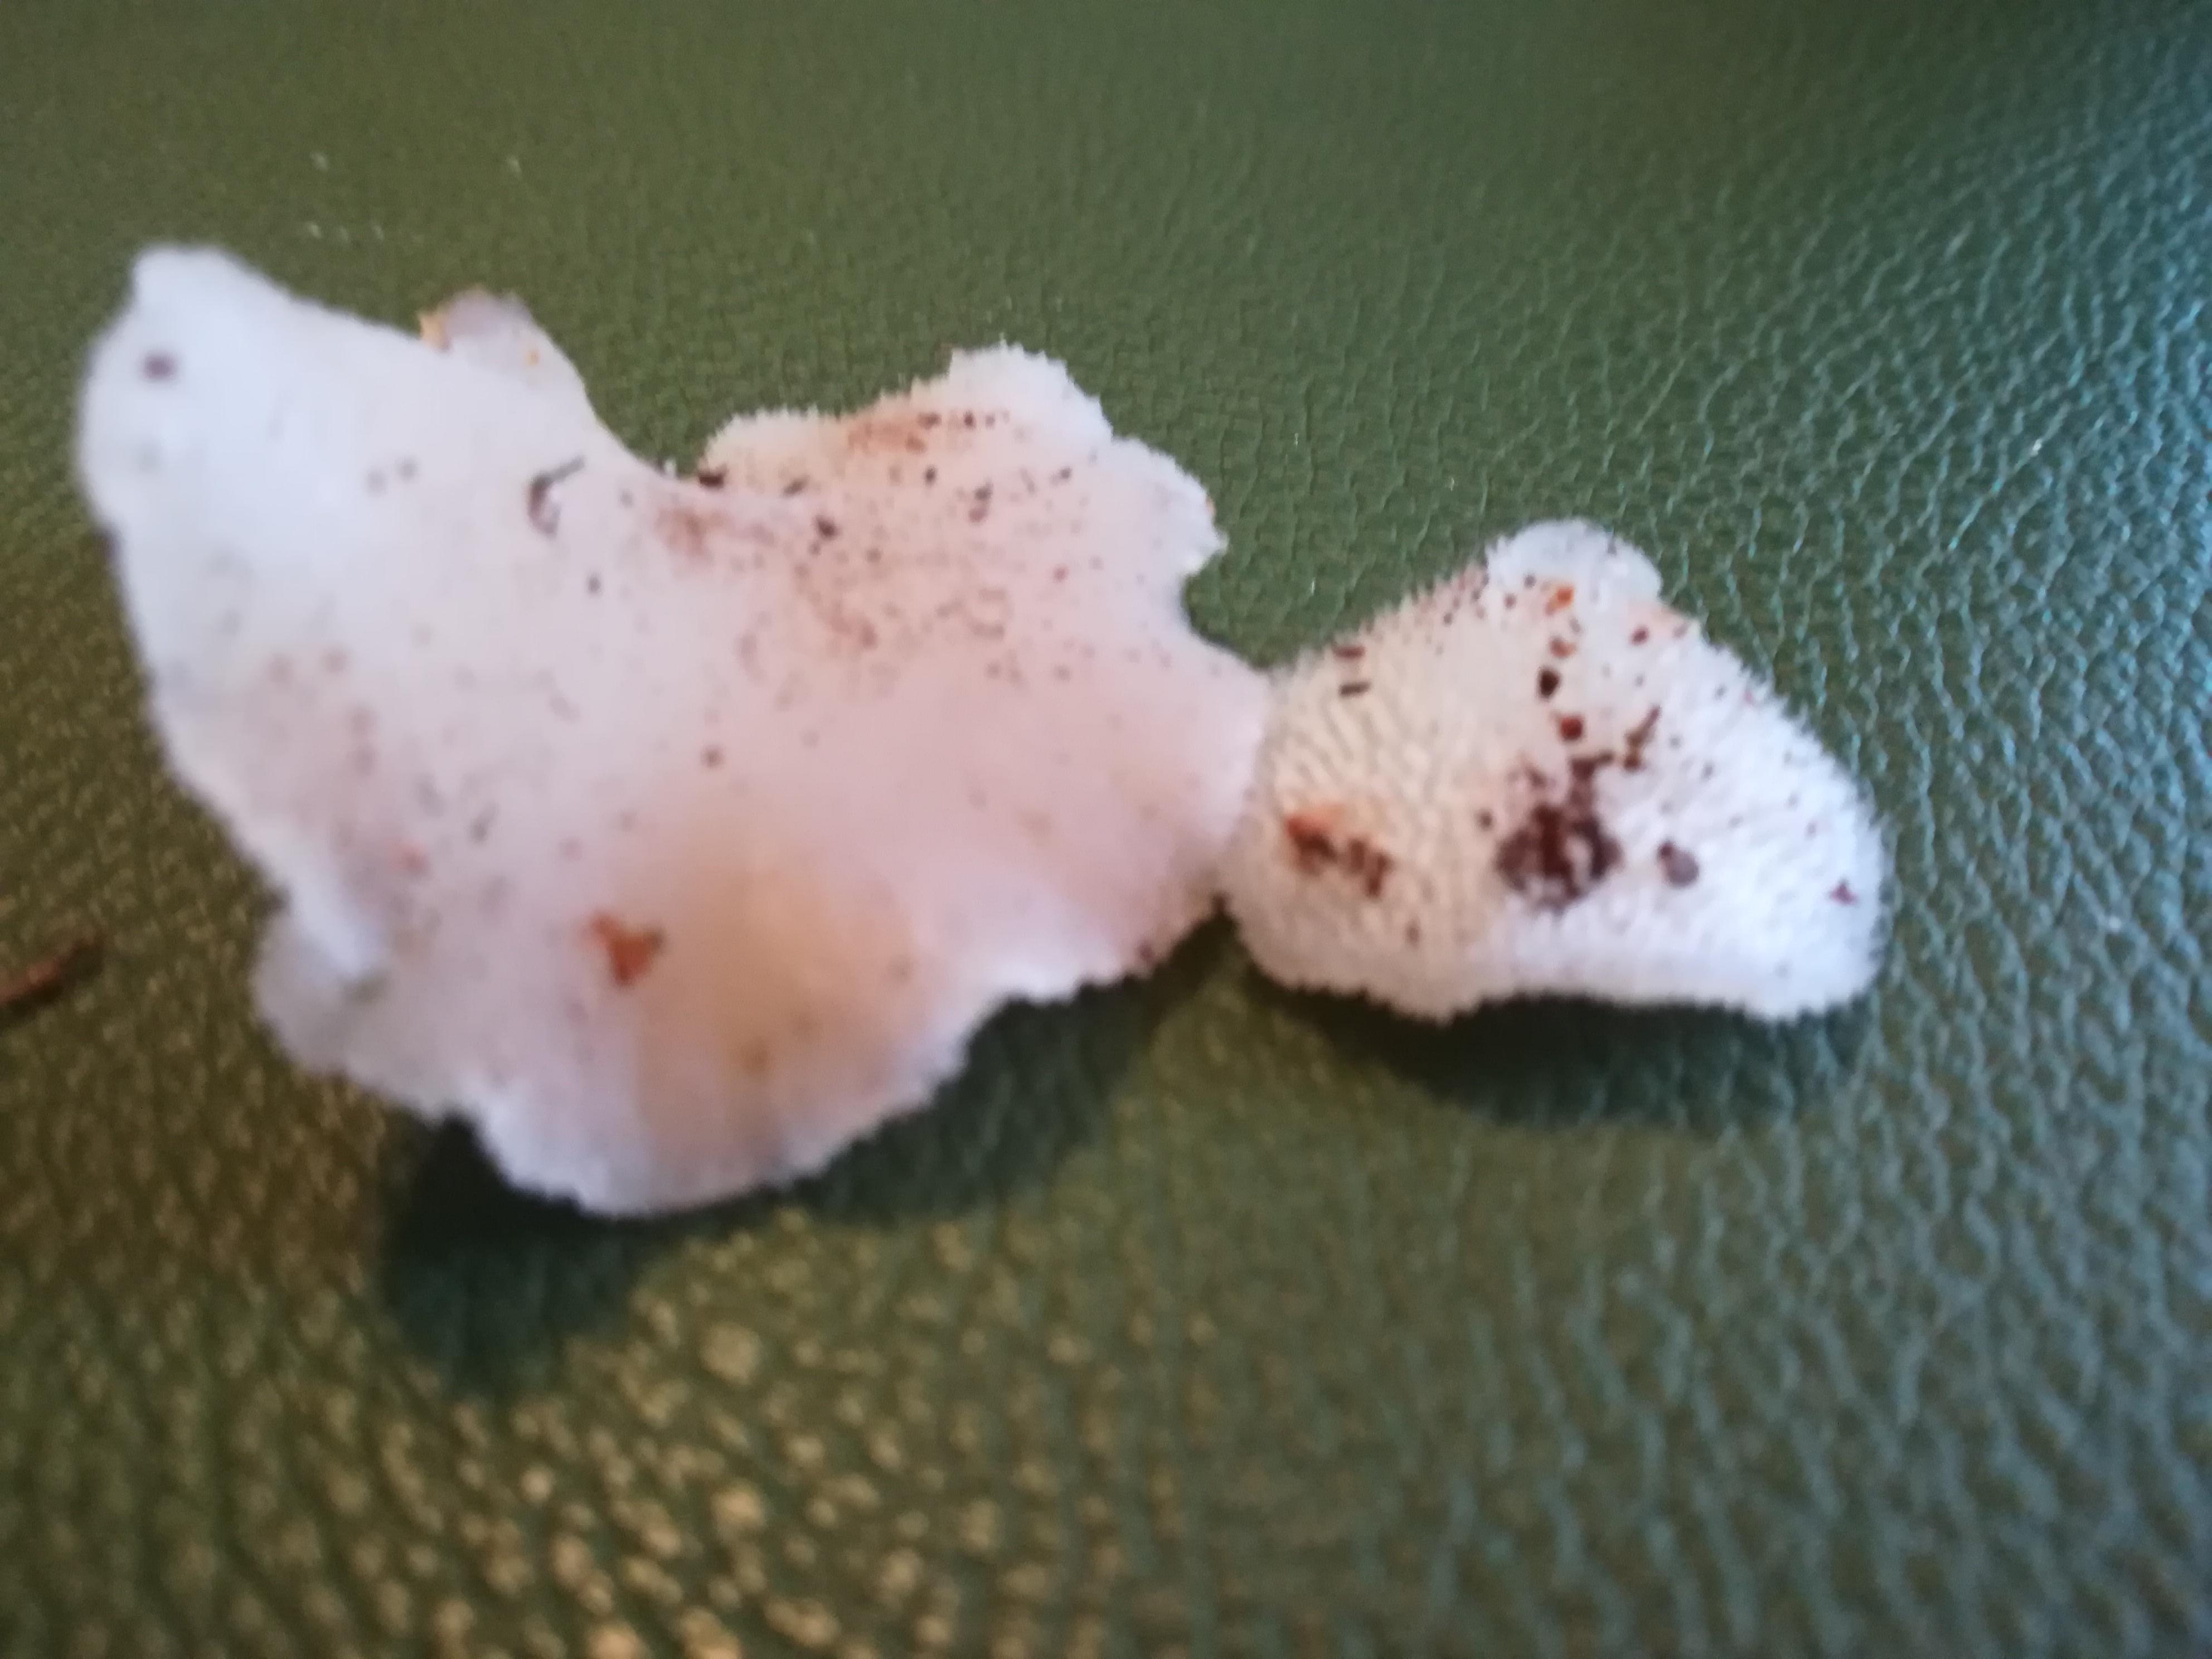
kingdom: Fungi
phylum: Basidiomycota
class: Agaricomycetes
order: Auriculariales
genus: Pseudohydnum
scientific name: Pseudohydnum gelatinosum
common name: bævretand
